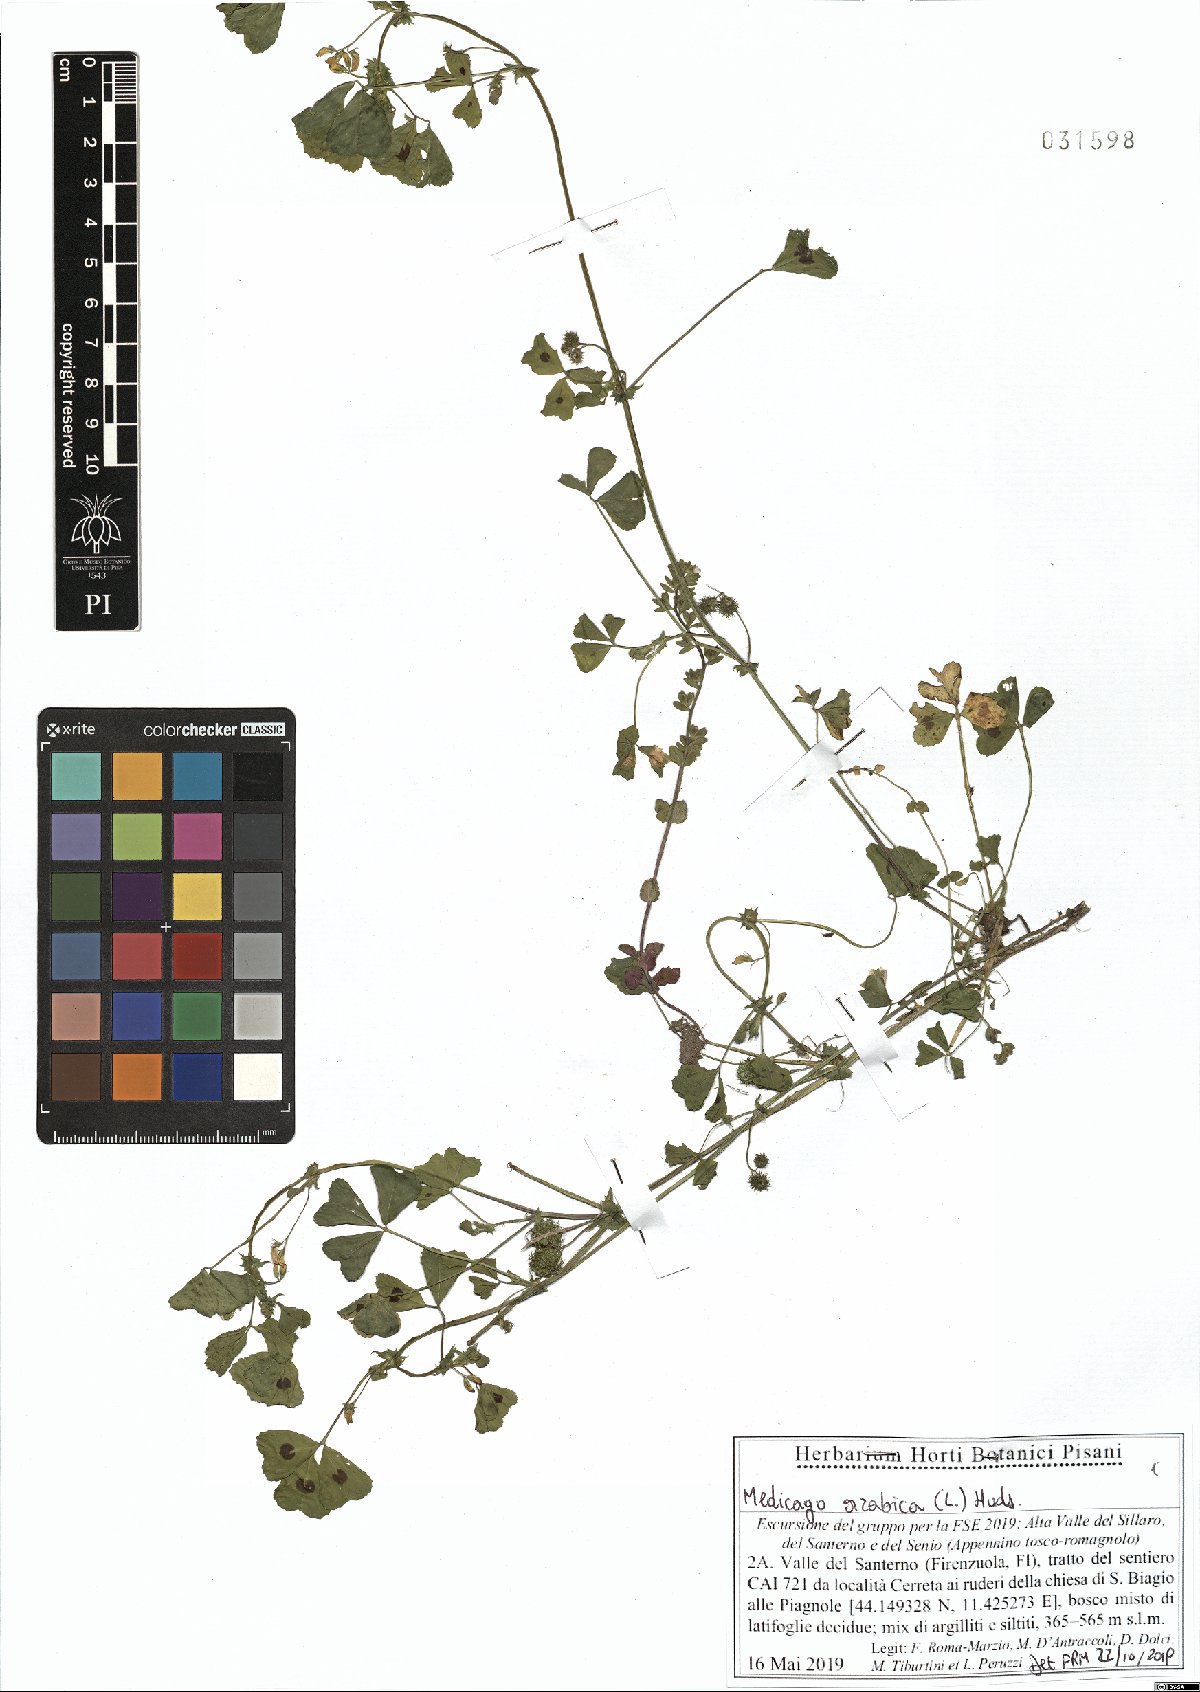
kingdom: Plantae
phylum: Tracheophyta
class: Magnoliopsida
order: Fabales
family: Fabaceae
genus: Medicago
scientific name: Medicago arabica
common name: Spotted medick
